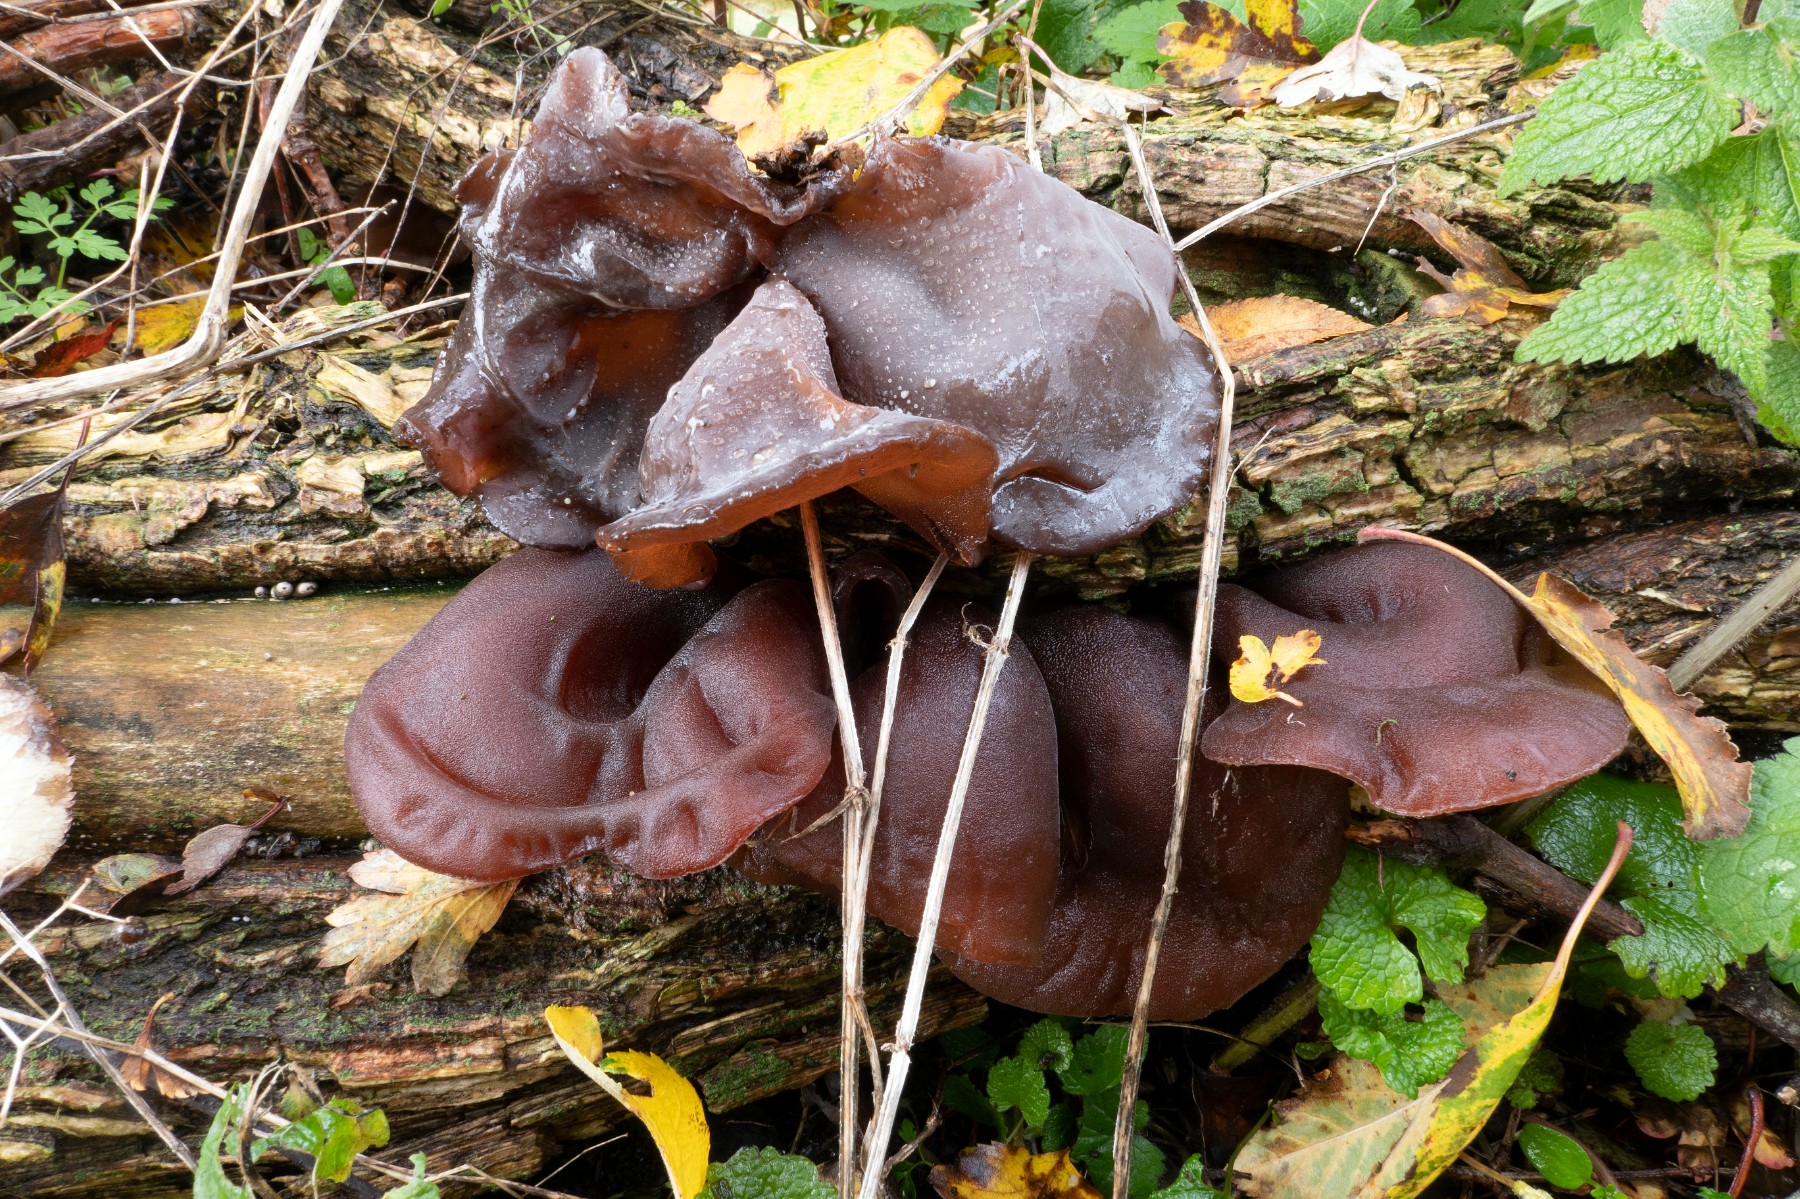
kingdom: Fungi
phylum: Basidiomycota
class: Agaricomycetes
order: Auriculariales
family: Auriculariaceae
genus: Auricularia
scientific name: Auricularia auricula-judae
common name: almindelig judasøre
